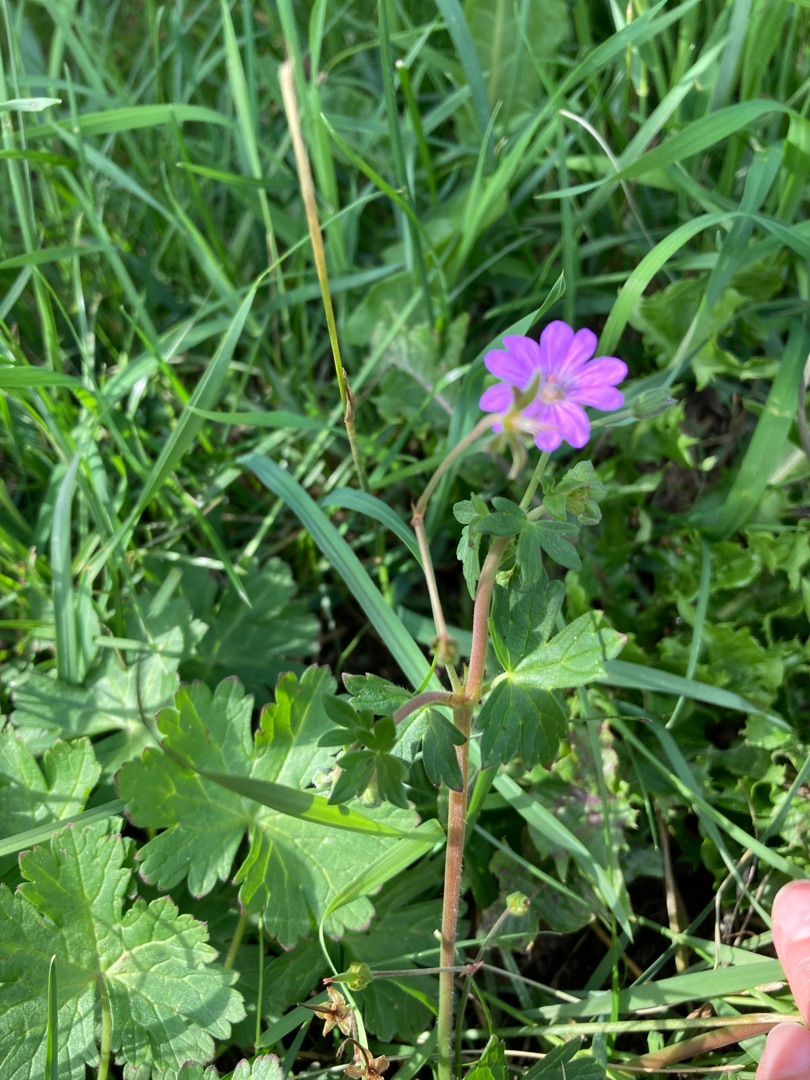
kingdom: Plantae
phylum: Tracheophyta
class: Magnoliopsida
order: Geraniales
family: Geraniaceae
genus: Geranium
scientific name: Geranium pyrenaicum
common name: Pyrenæisk storkenæb
